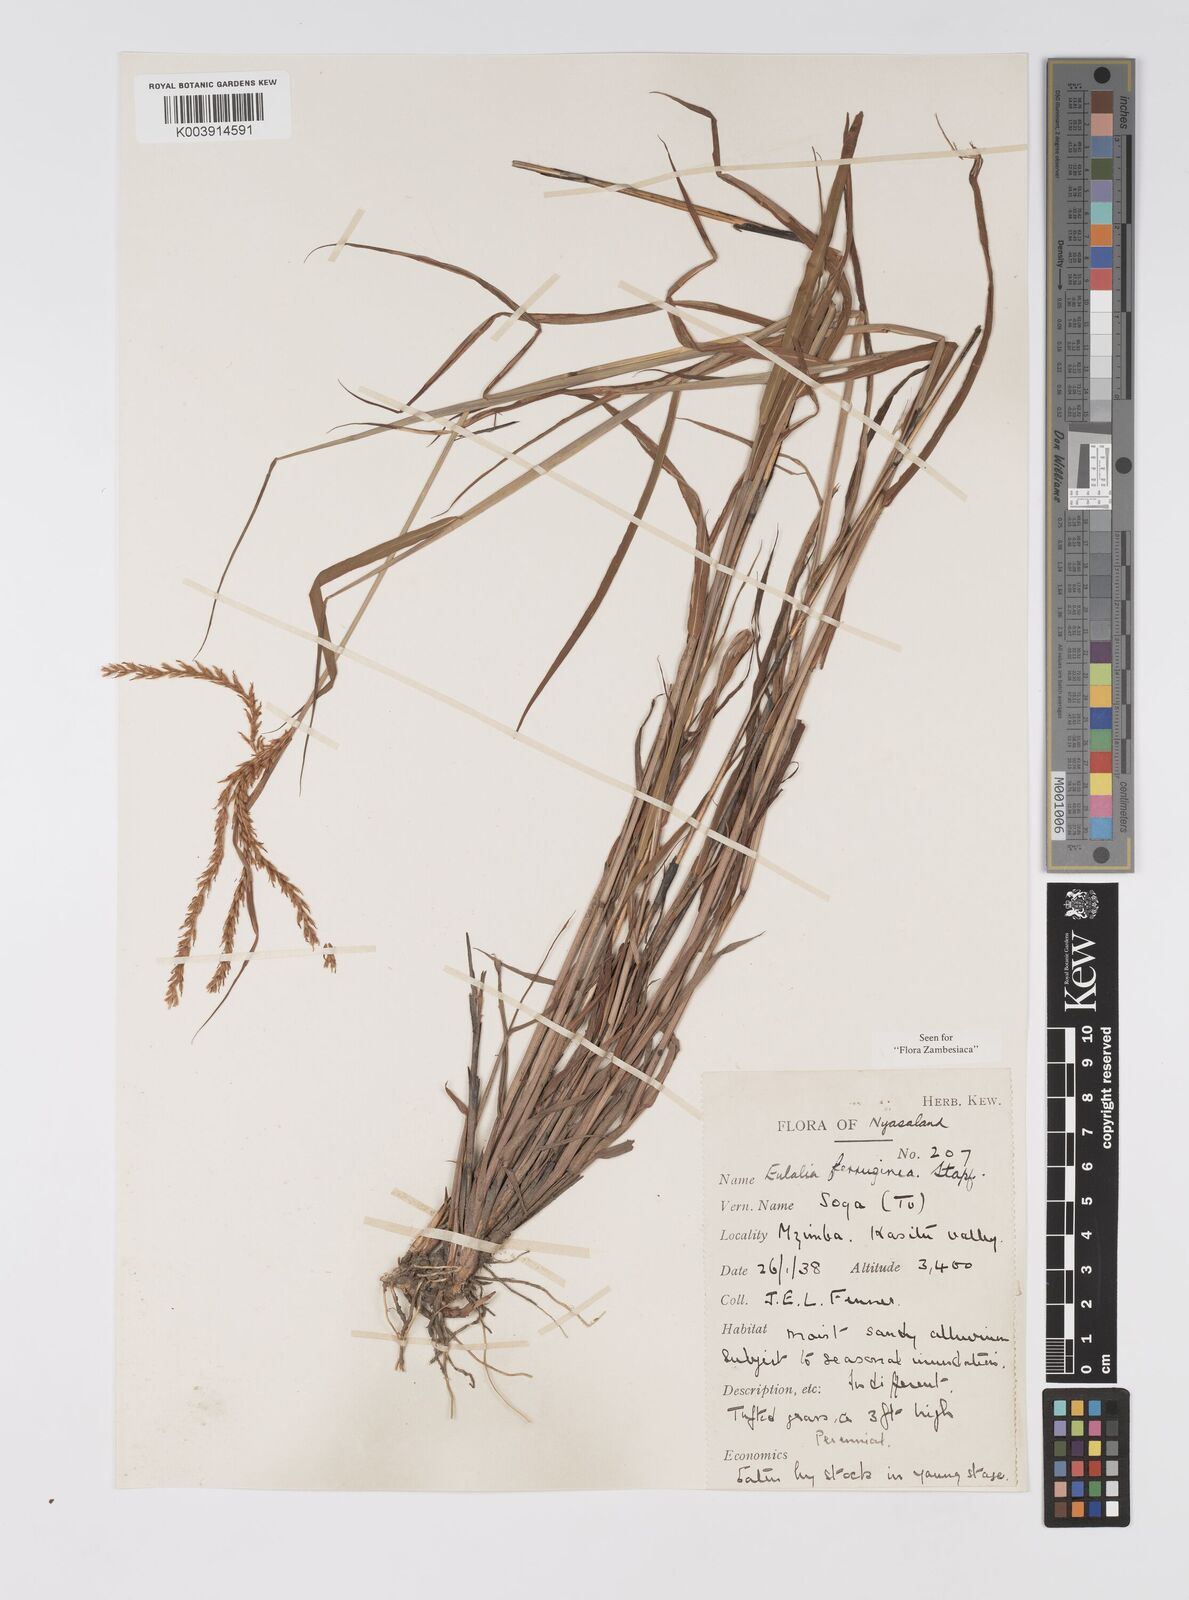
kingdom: Plantae
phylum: Tracheophyta
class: Liliopsida
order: Poales
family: Poaceae
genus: Eulalia
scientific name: Eulalia aurea
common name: Silky browntop
